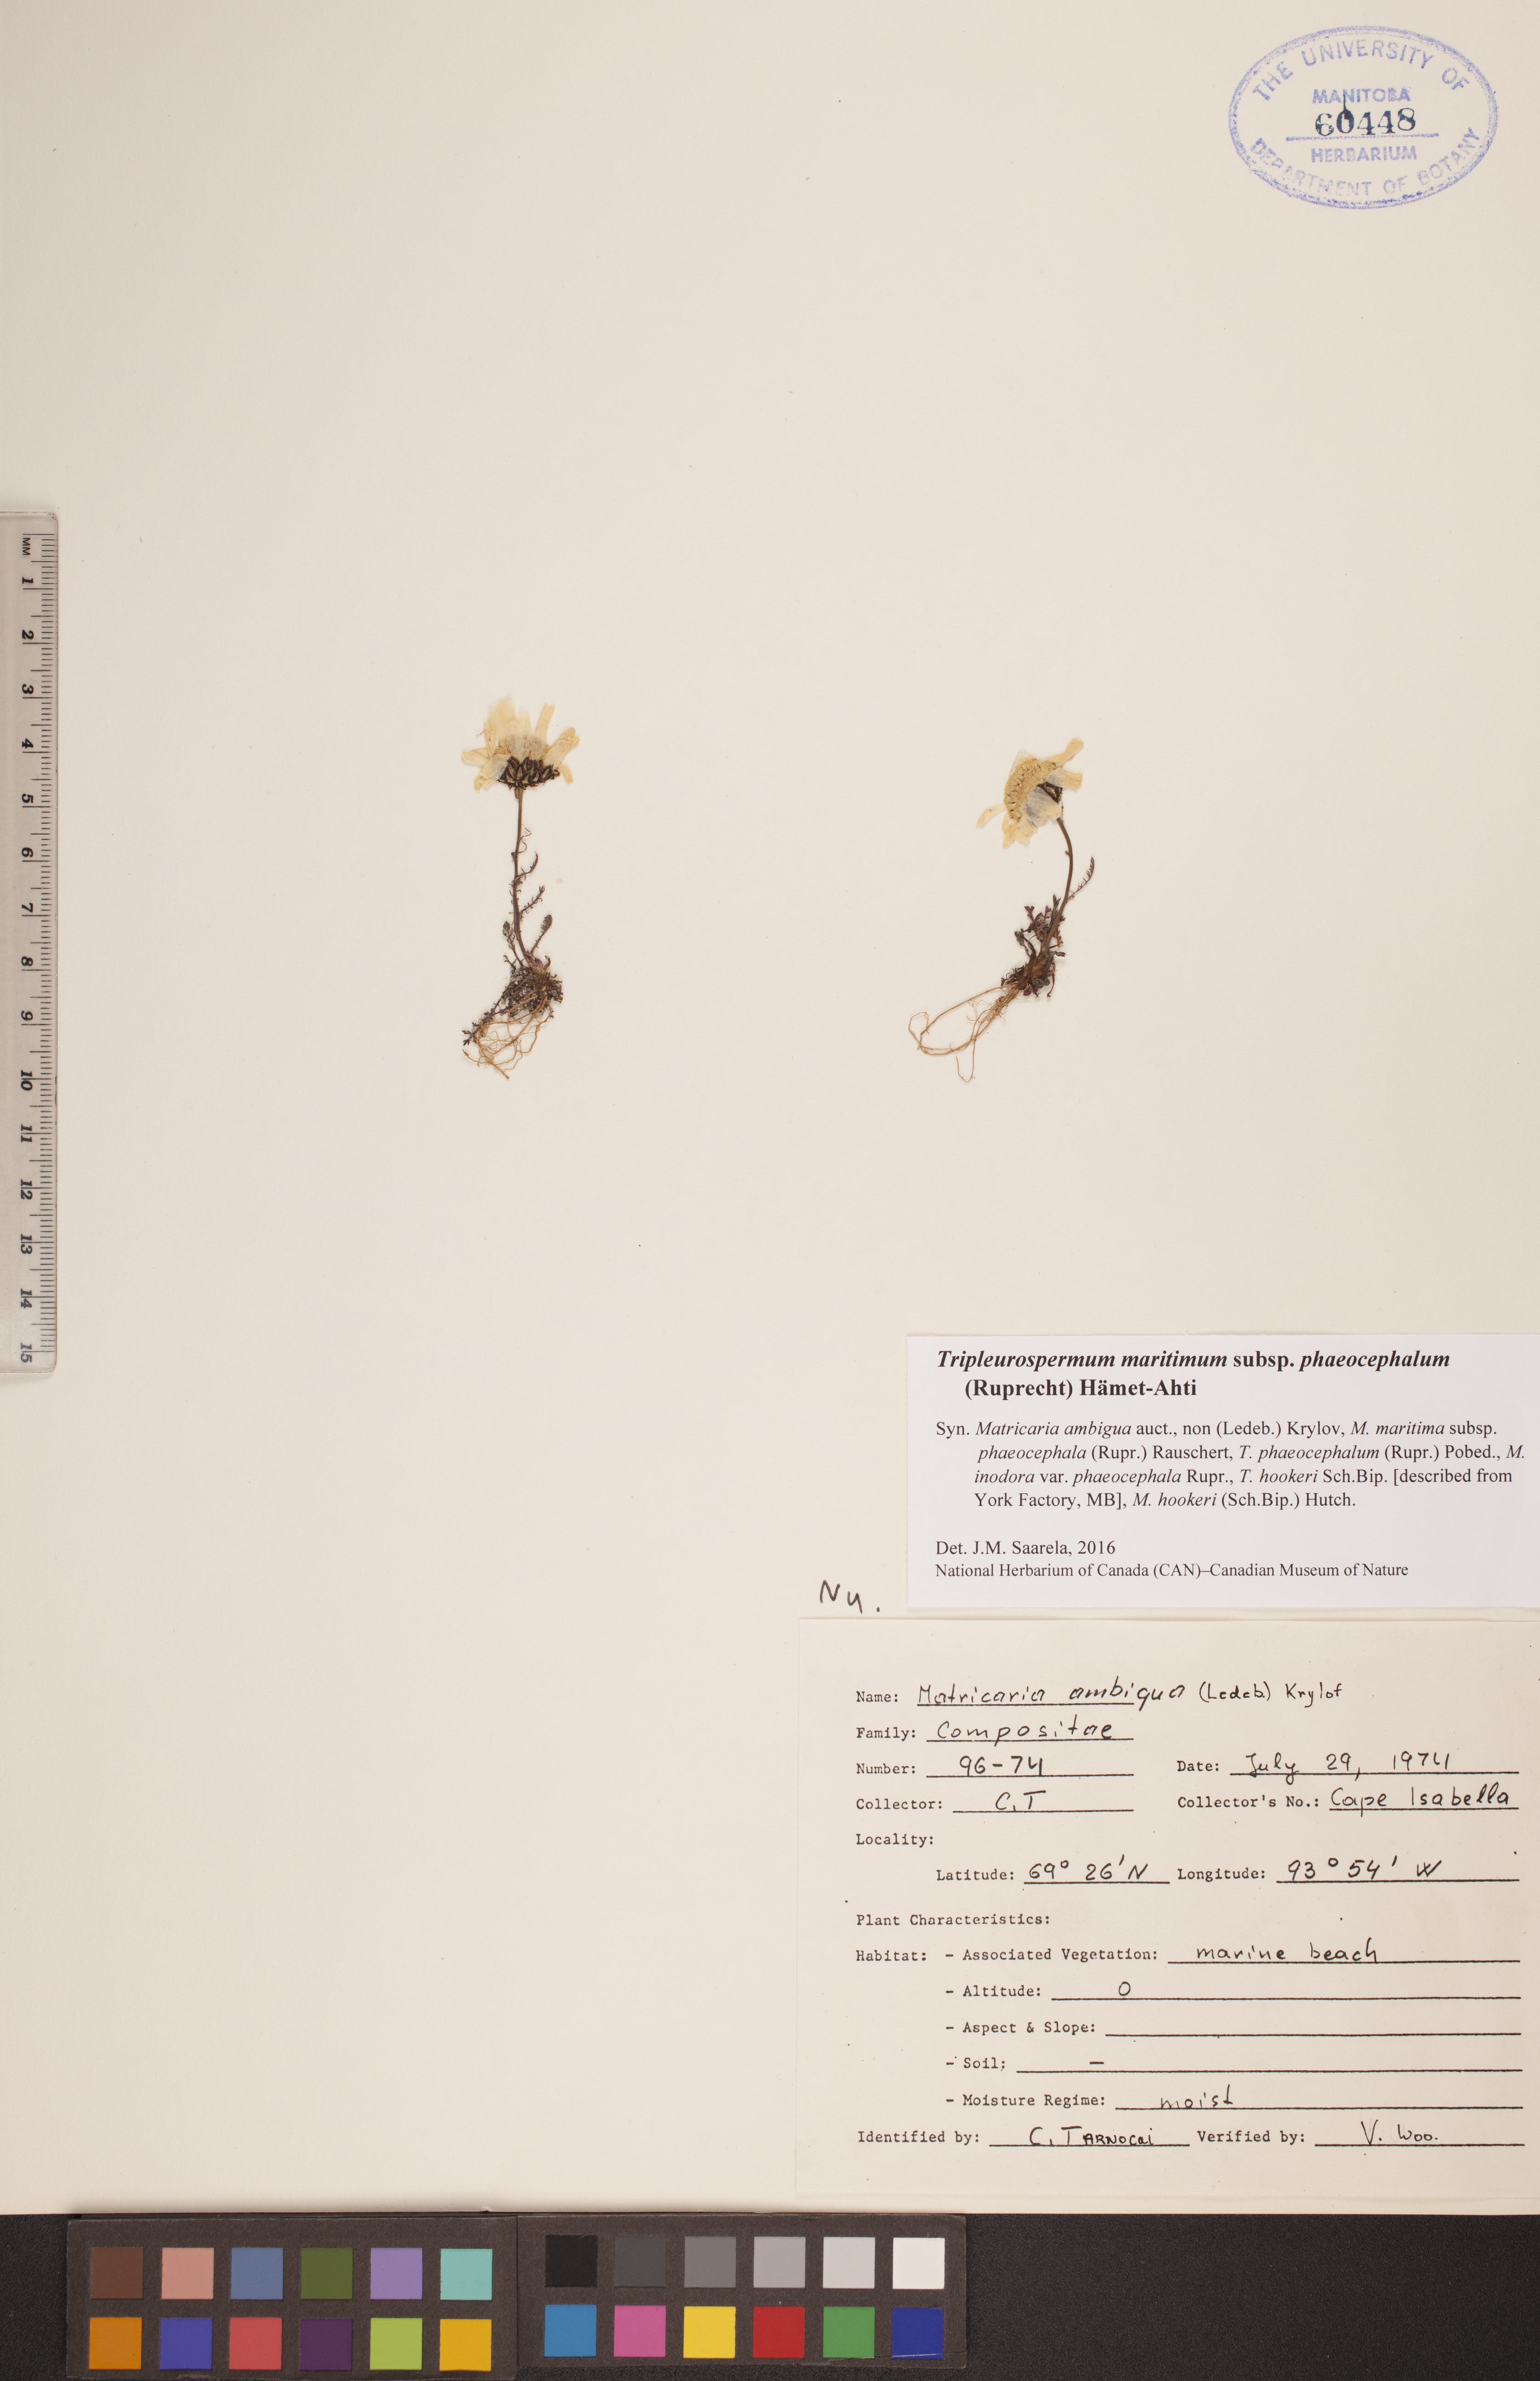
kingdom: Plantae
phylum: Tracheophyta
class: Magnoliopsida
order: Asterales
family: Asteraceae
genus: Tripleurospermum
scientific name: Tripleurospermum hookeri
